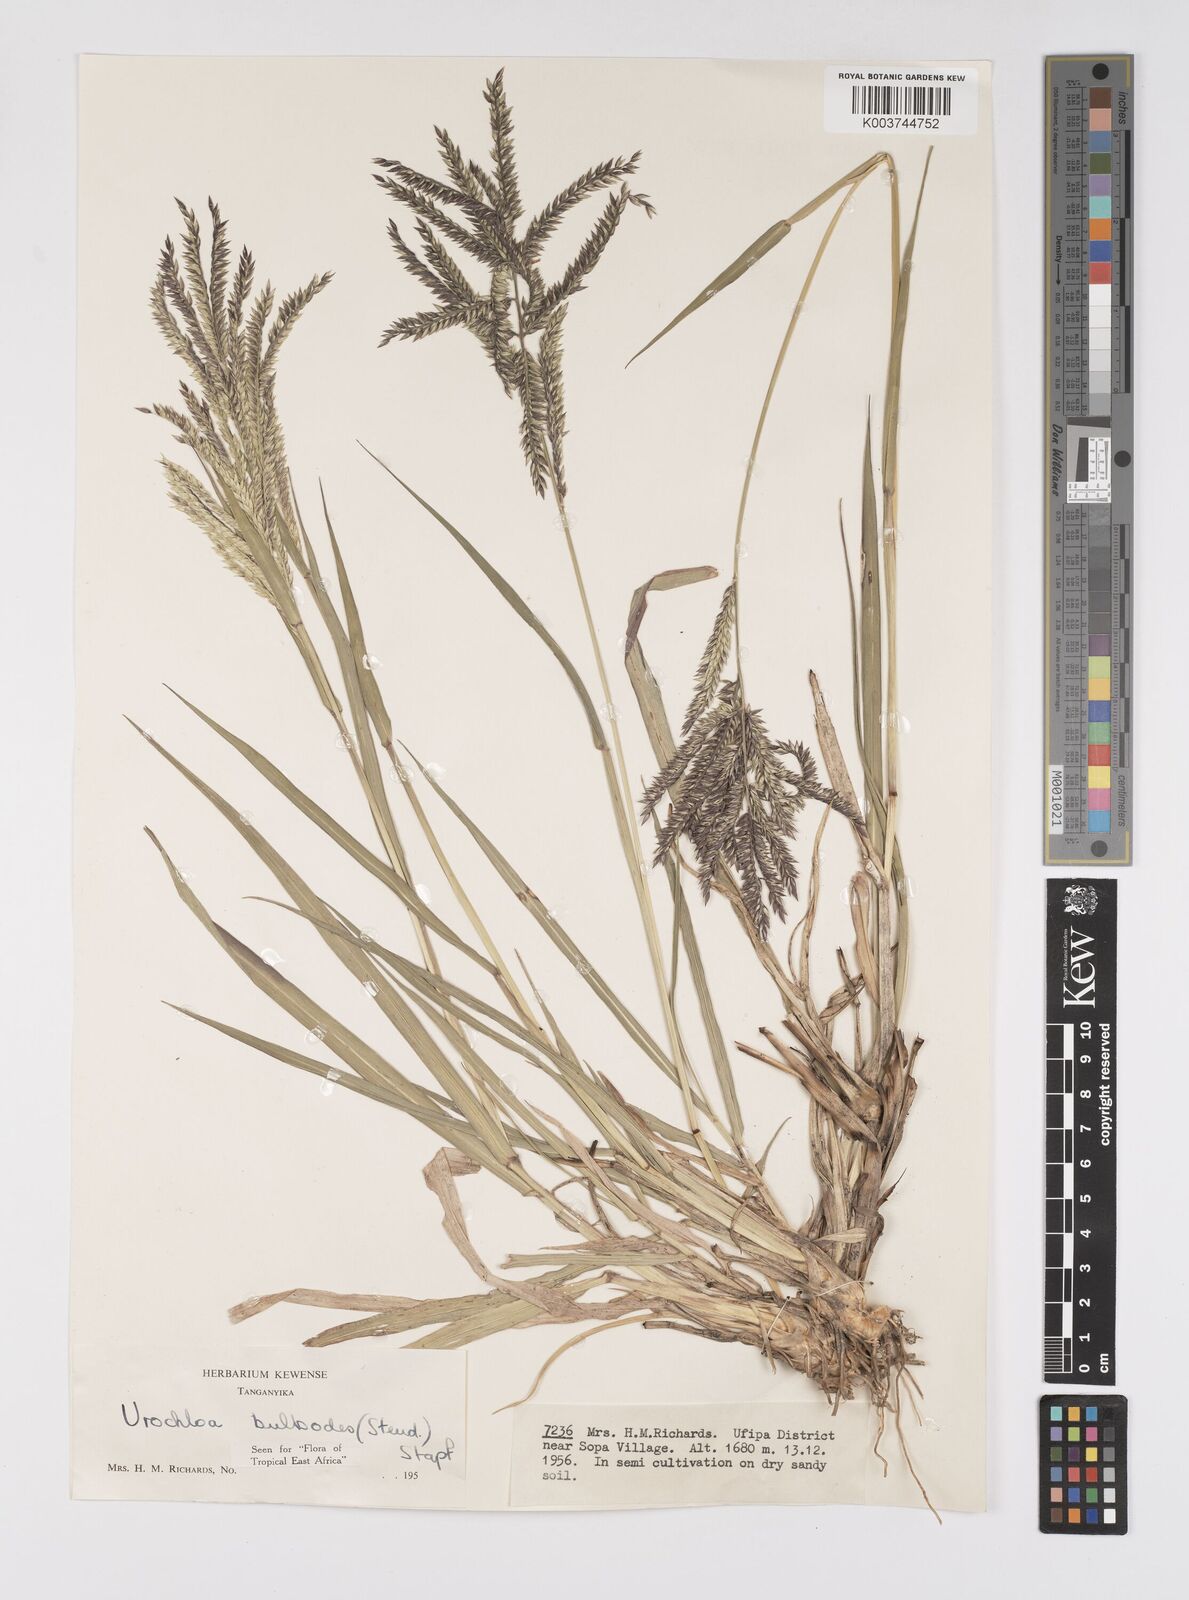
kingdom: Plantae
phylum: Tracheophyta
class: Liliopsida
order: Poales
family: Poaceae
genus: Urochloa
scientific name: Urochloa oligotricha
